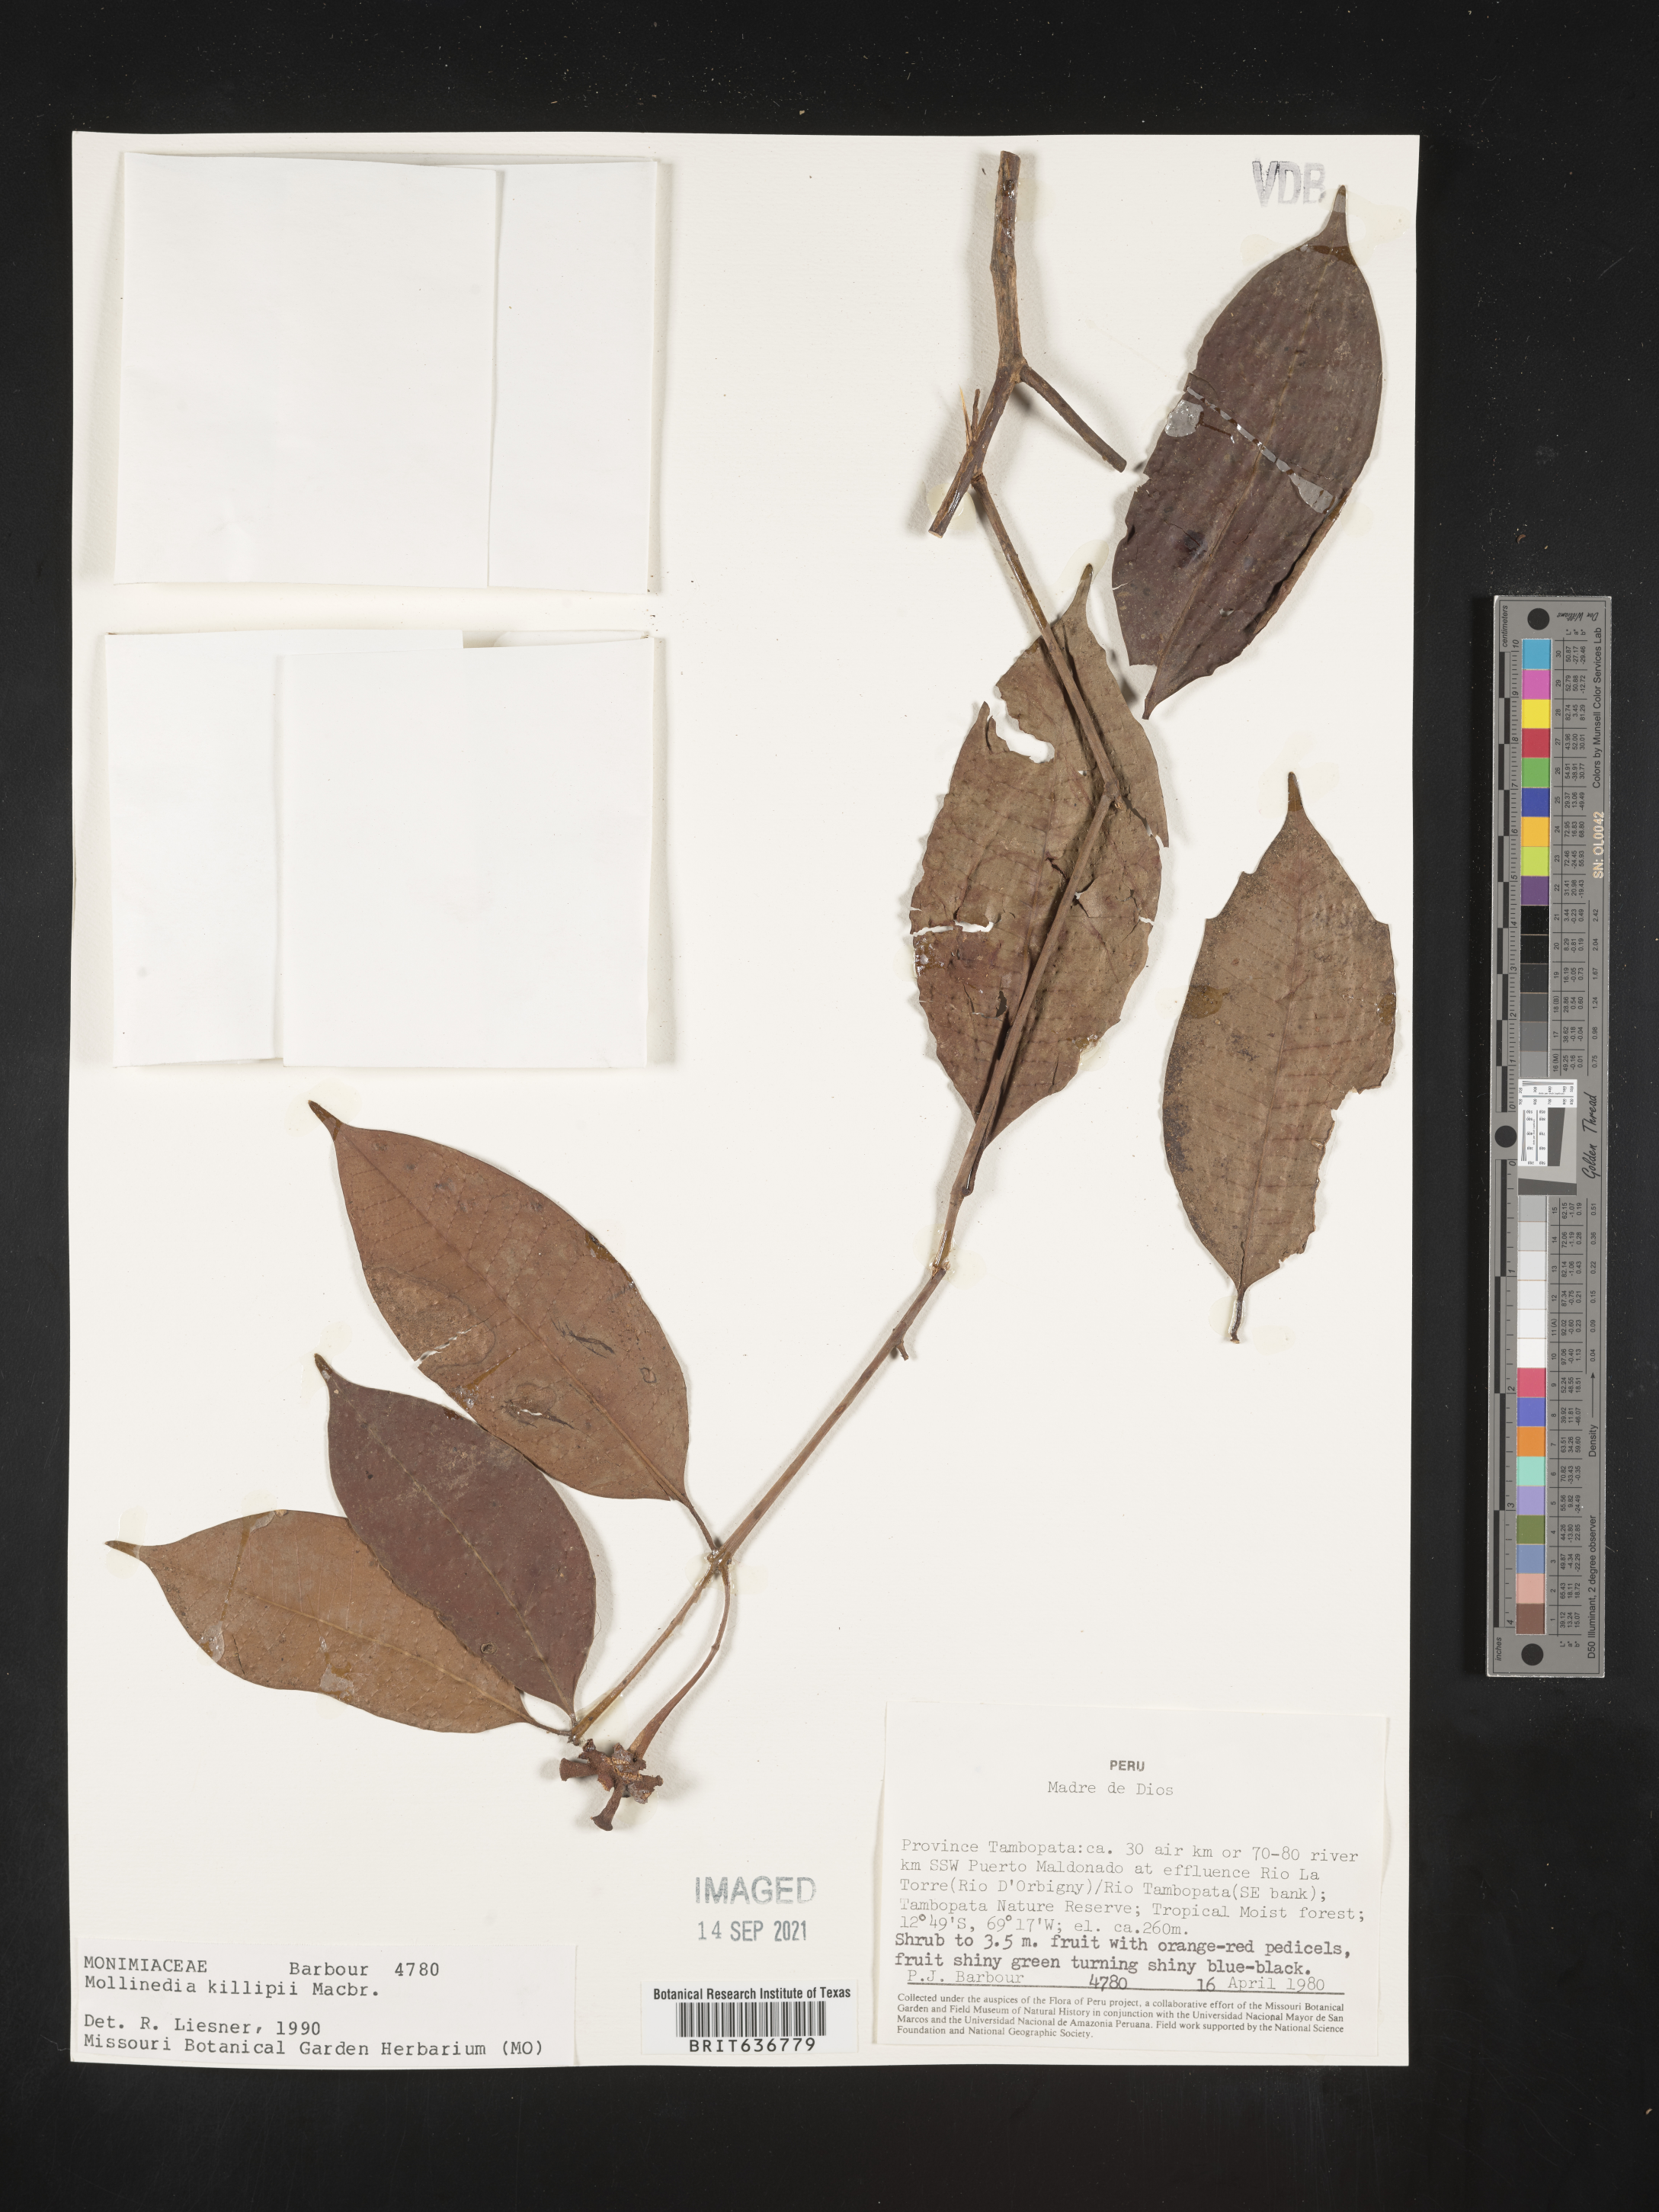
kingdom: Plantae
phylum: Tracheophyta
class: Magnoliopsida
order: Laurales
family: Monimiaceae
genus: Mollinedia
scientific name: Mollinedia
